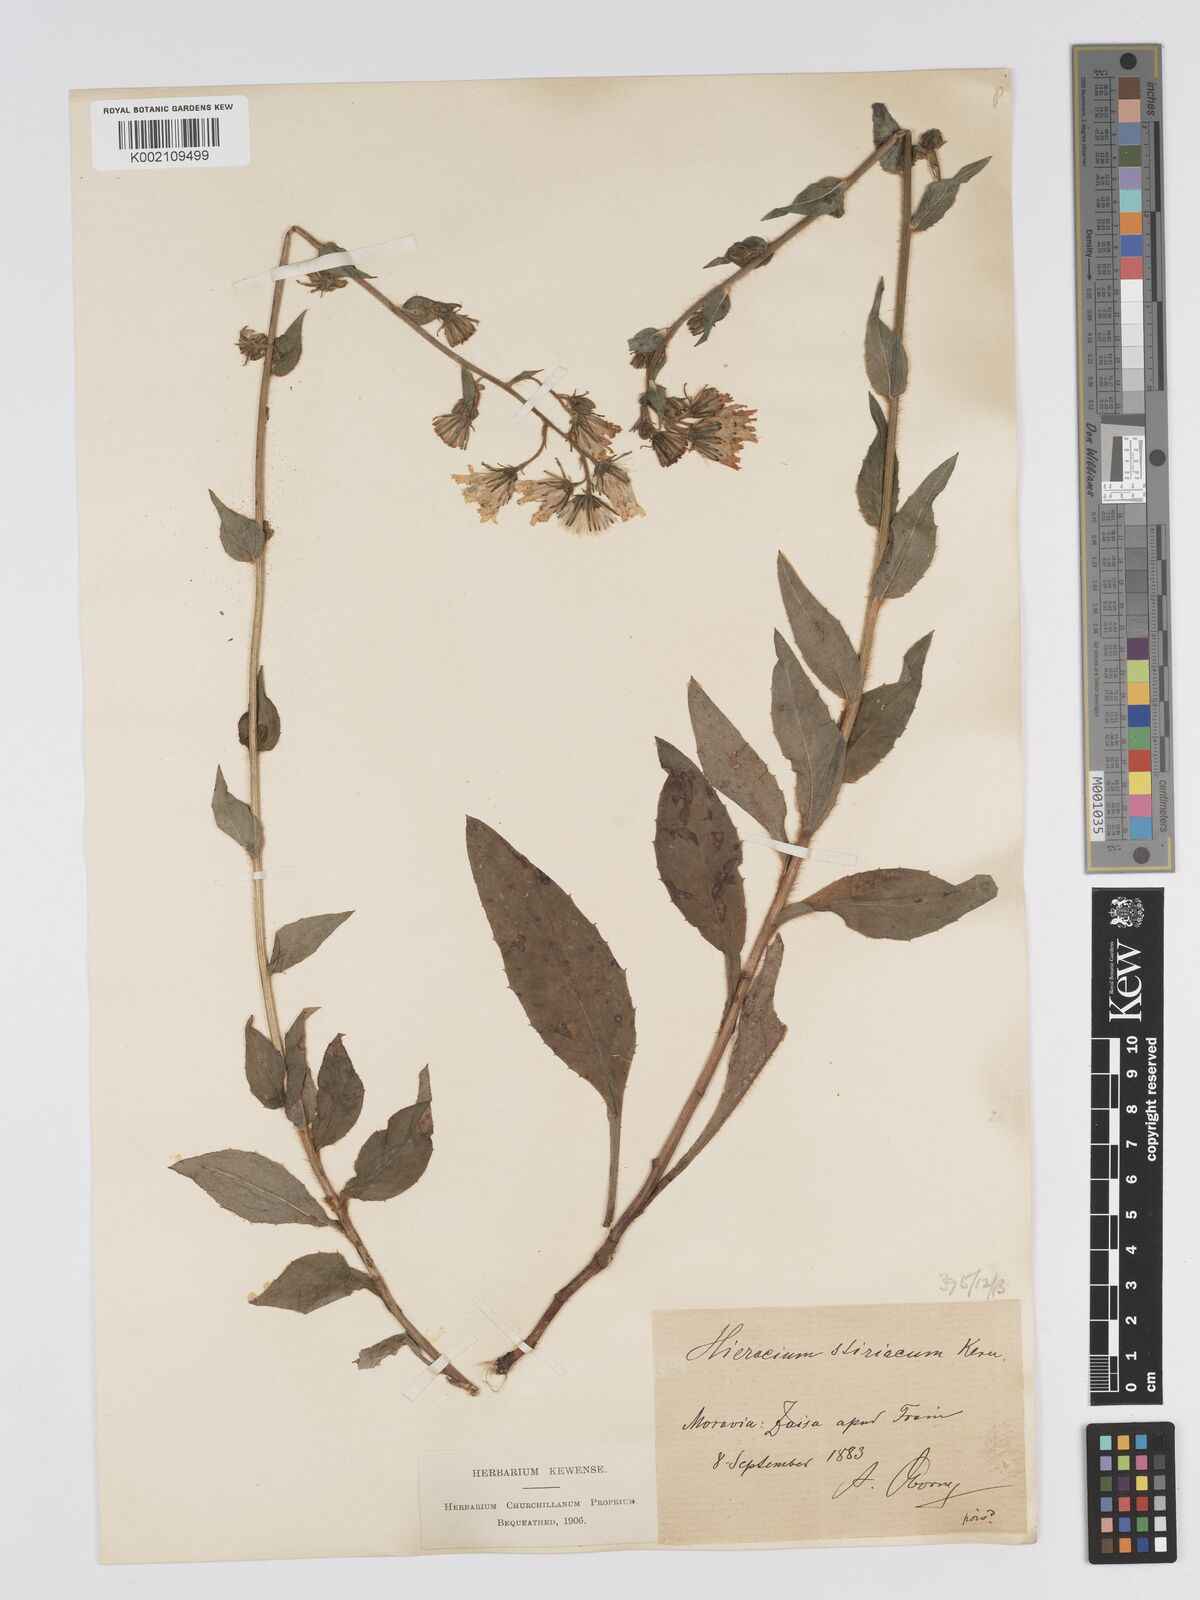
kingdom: Plantae
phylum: Tracheophyta
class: Magnoliopsida
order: Asterales
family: Asteraceae
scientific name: Asteraceae
